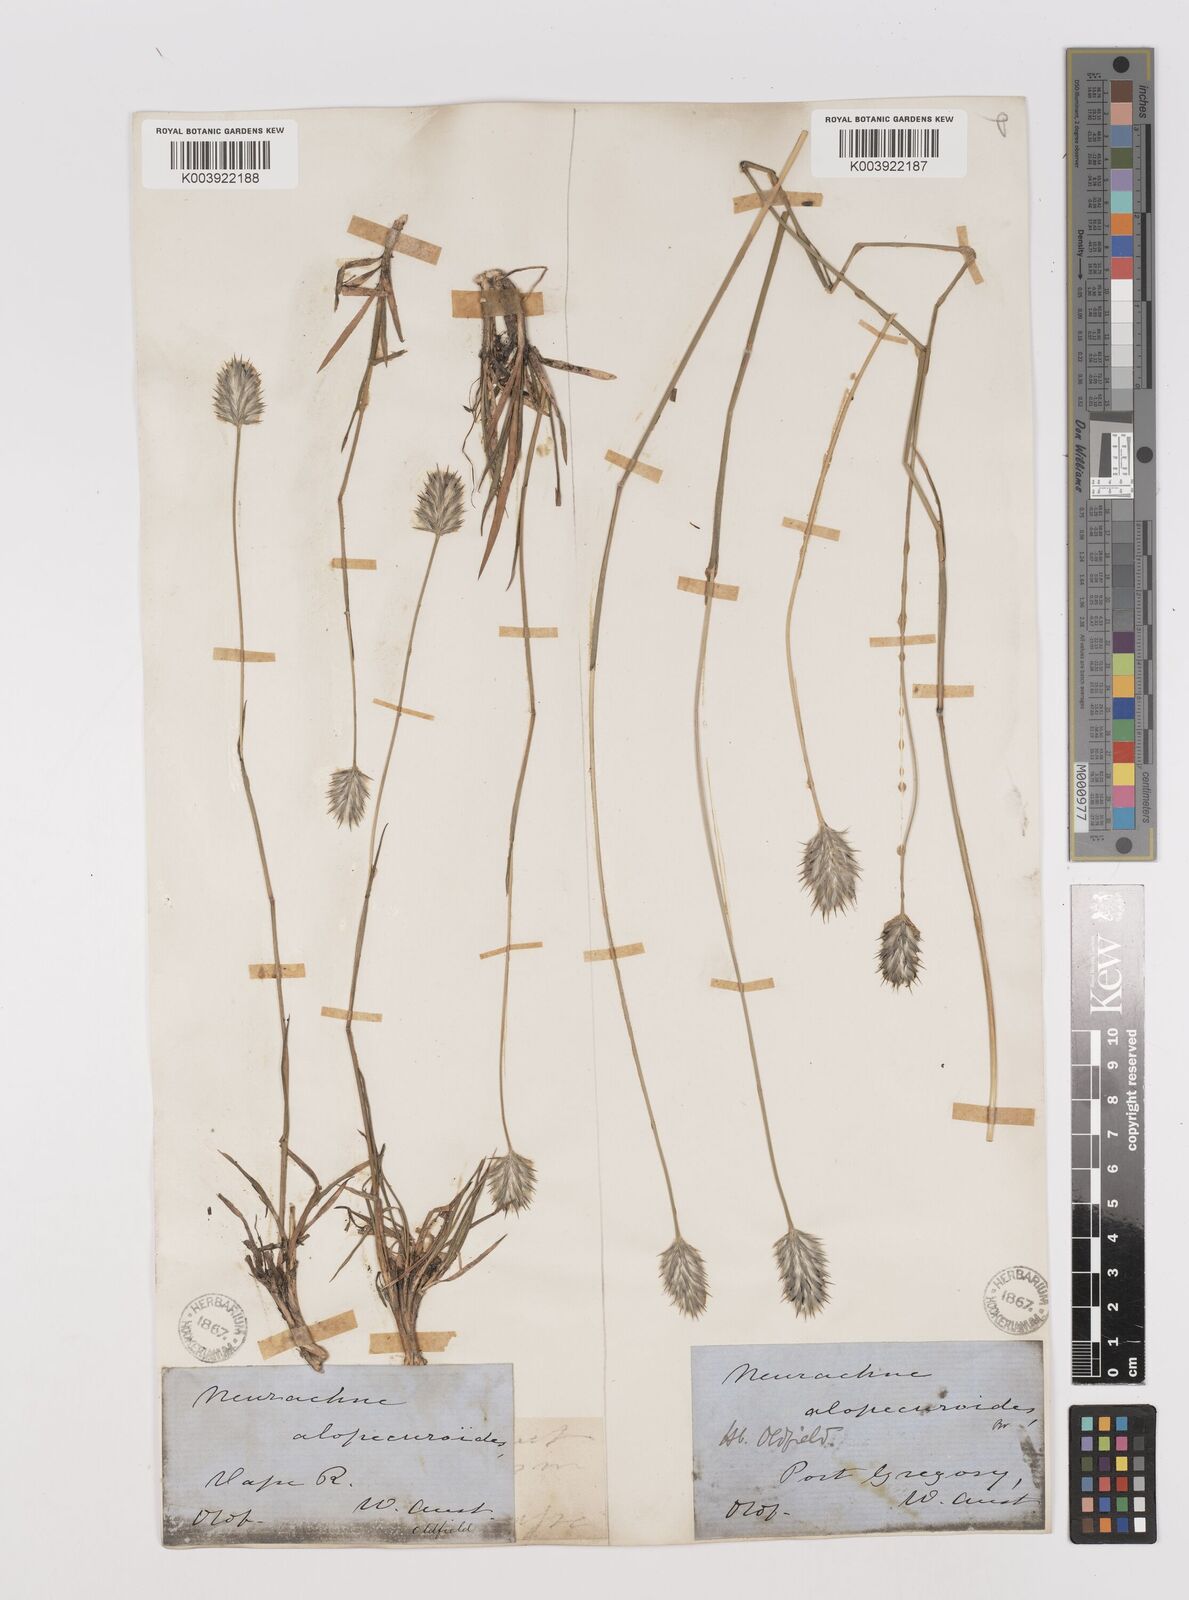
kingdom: Plantae
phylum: Tracheophyta
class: Liliopsida
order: Poales
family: Poaceae
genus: Neurachne
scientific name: Neurachne alopecuroidea
